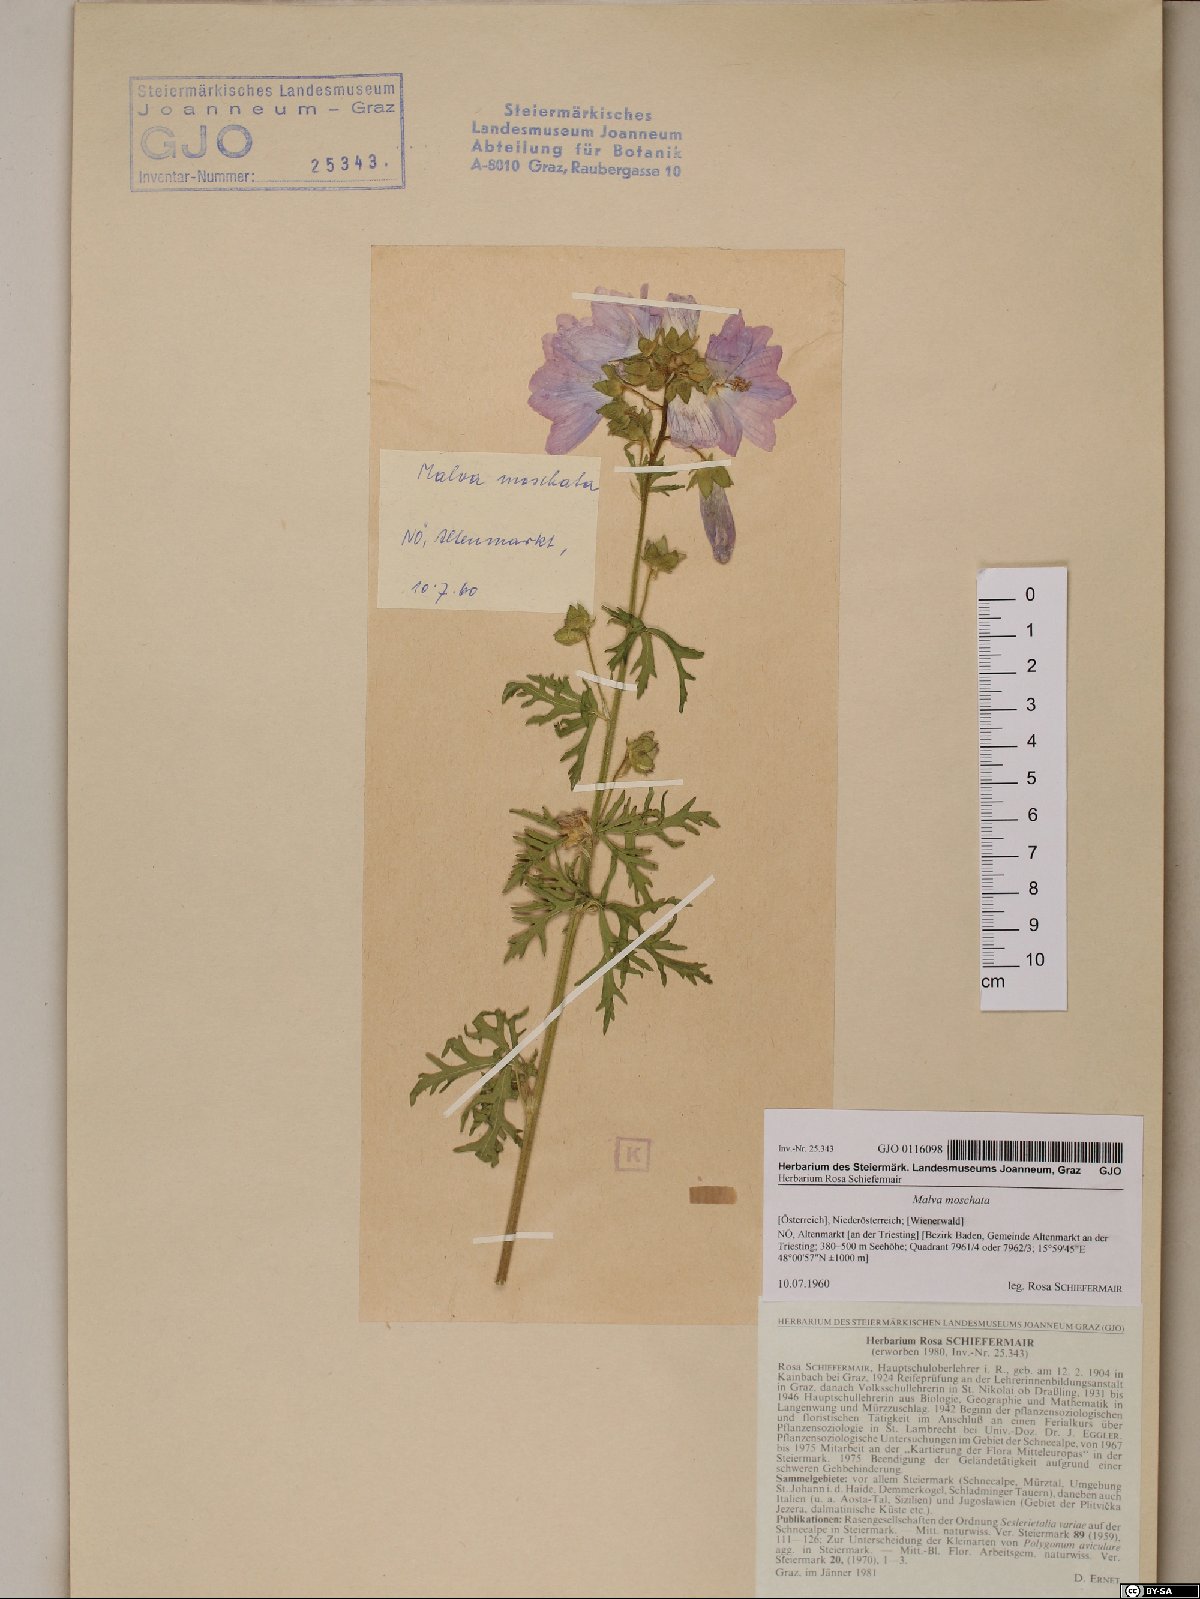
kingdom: Plantae
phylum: Tracheophyta
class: Magnoliopsida
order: Malvales
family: Malvaceae
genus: Malva
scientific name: Malva moschata
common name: Musk mallow
